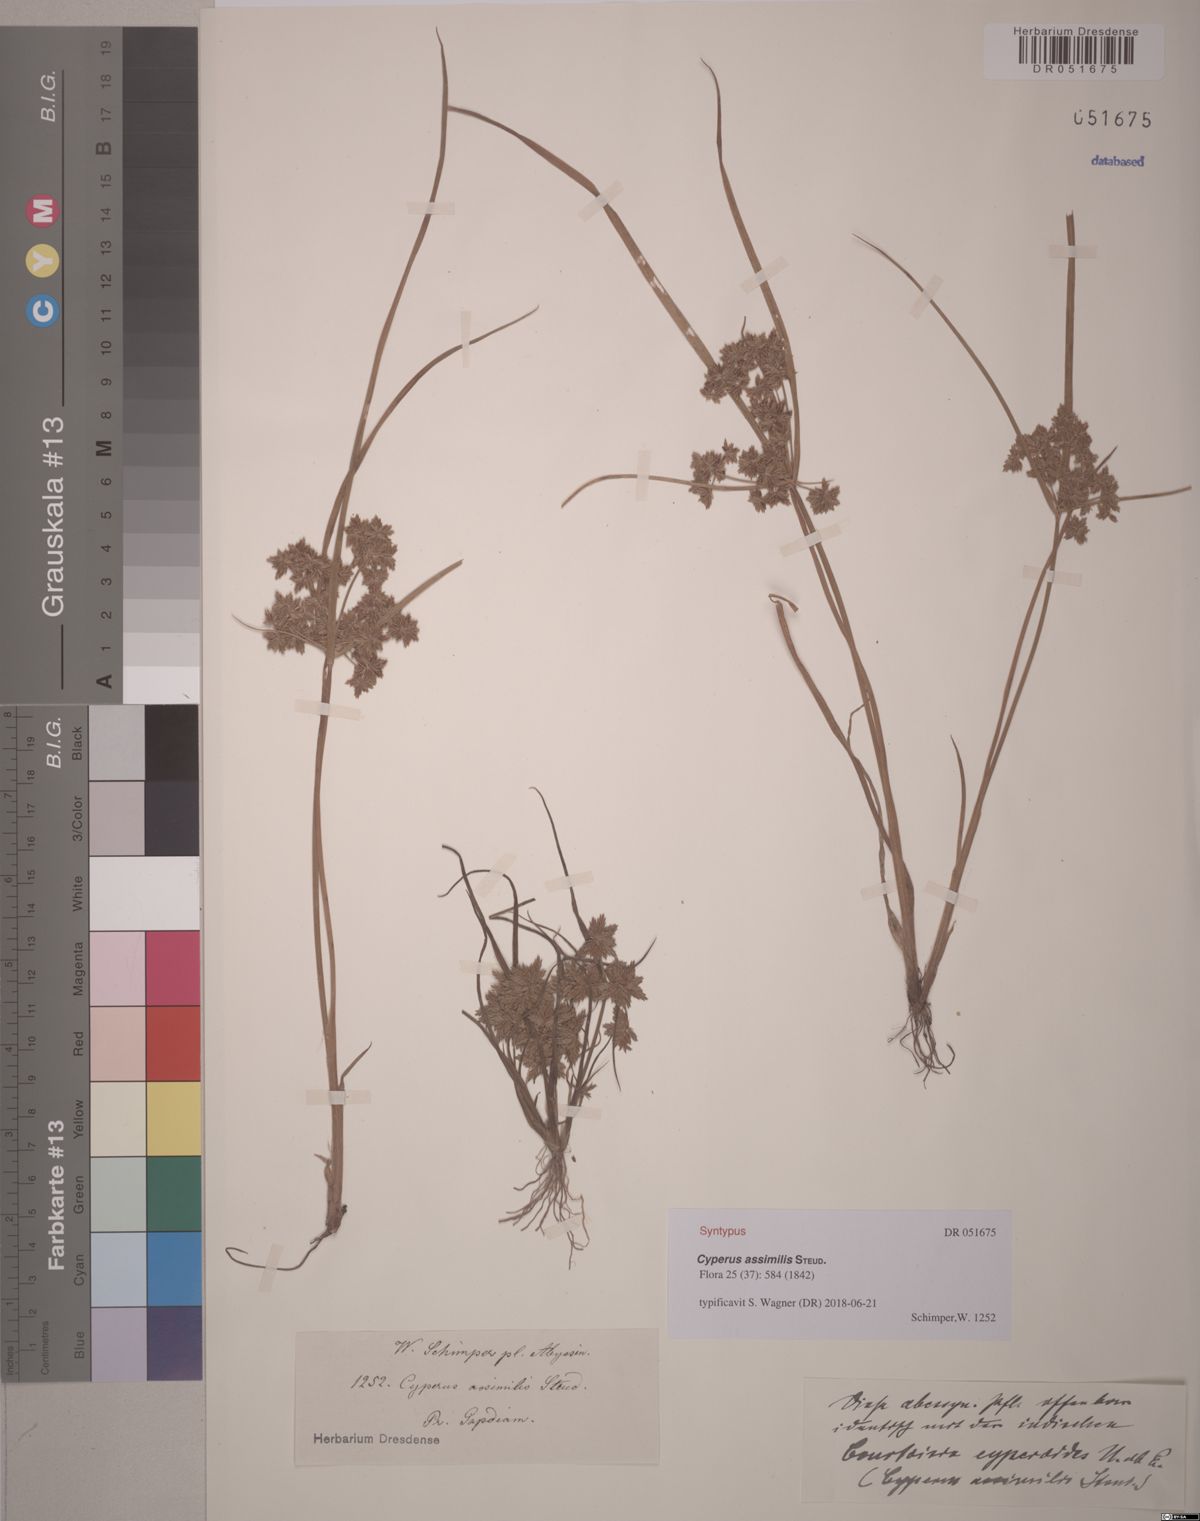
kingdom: Plantae
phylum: Tracheophyta
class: Liliopsida
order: Poales
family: Cyperaceae
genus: Cyperus
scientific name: Cyperus assimilis
